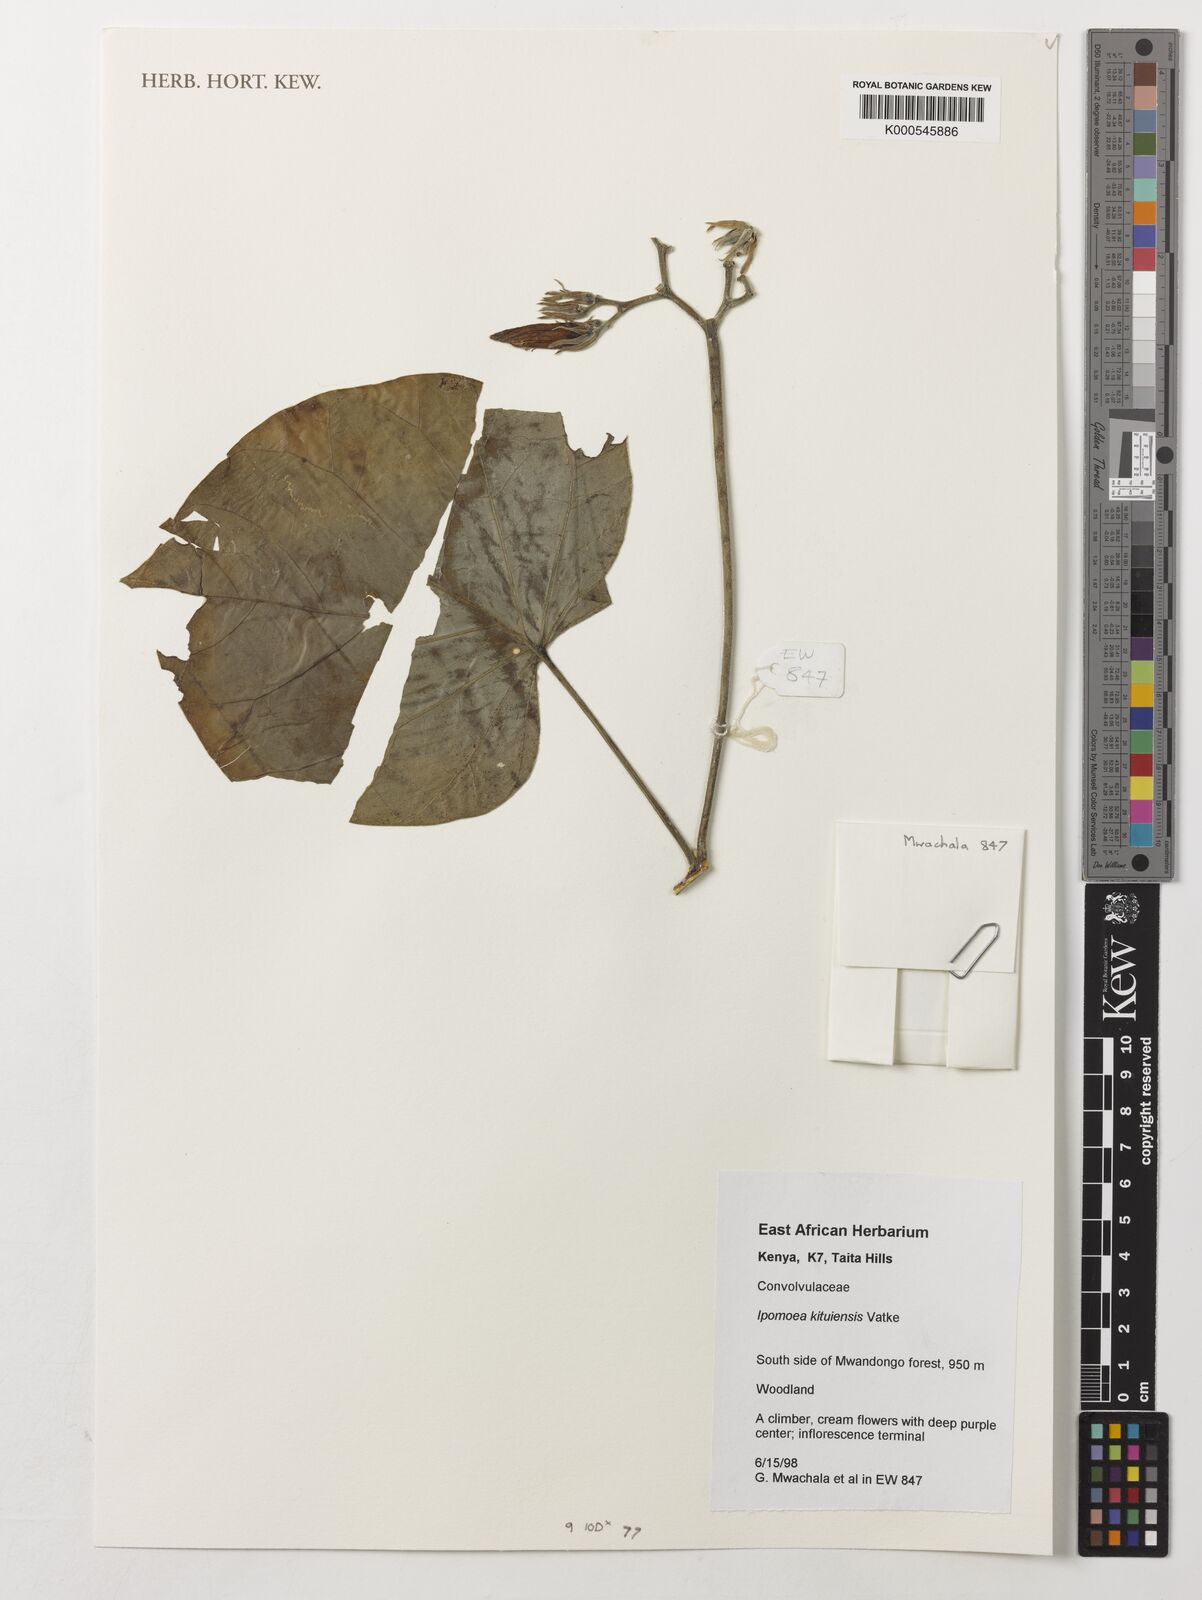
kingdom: Plantae
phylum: Tracheophyta
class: Magnoliopsida
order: Solanales
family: Convolvulaceae
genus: Ipomoea
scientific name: Ipomoea kituiensis
